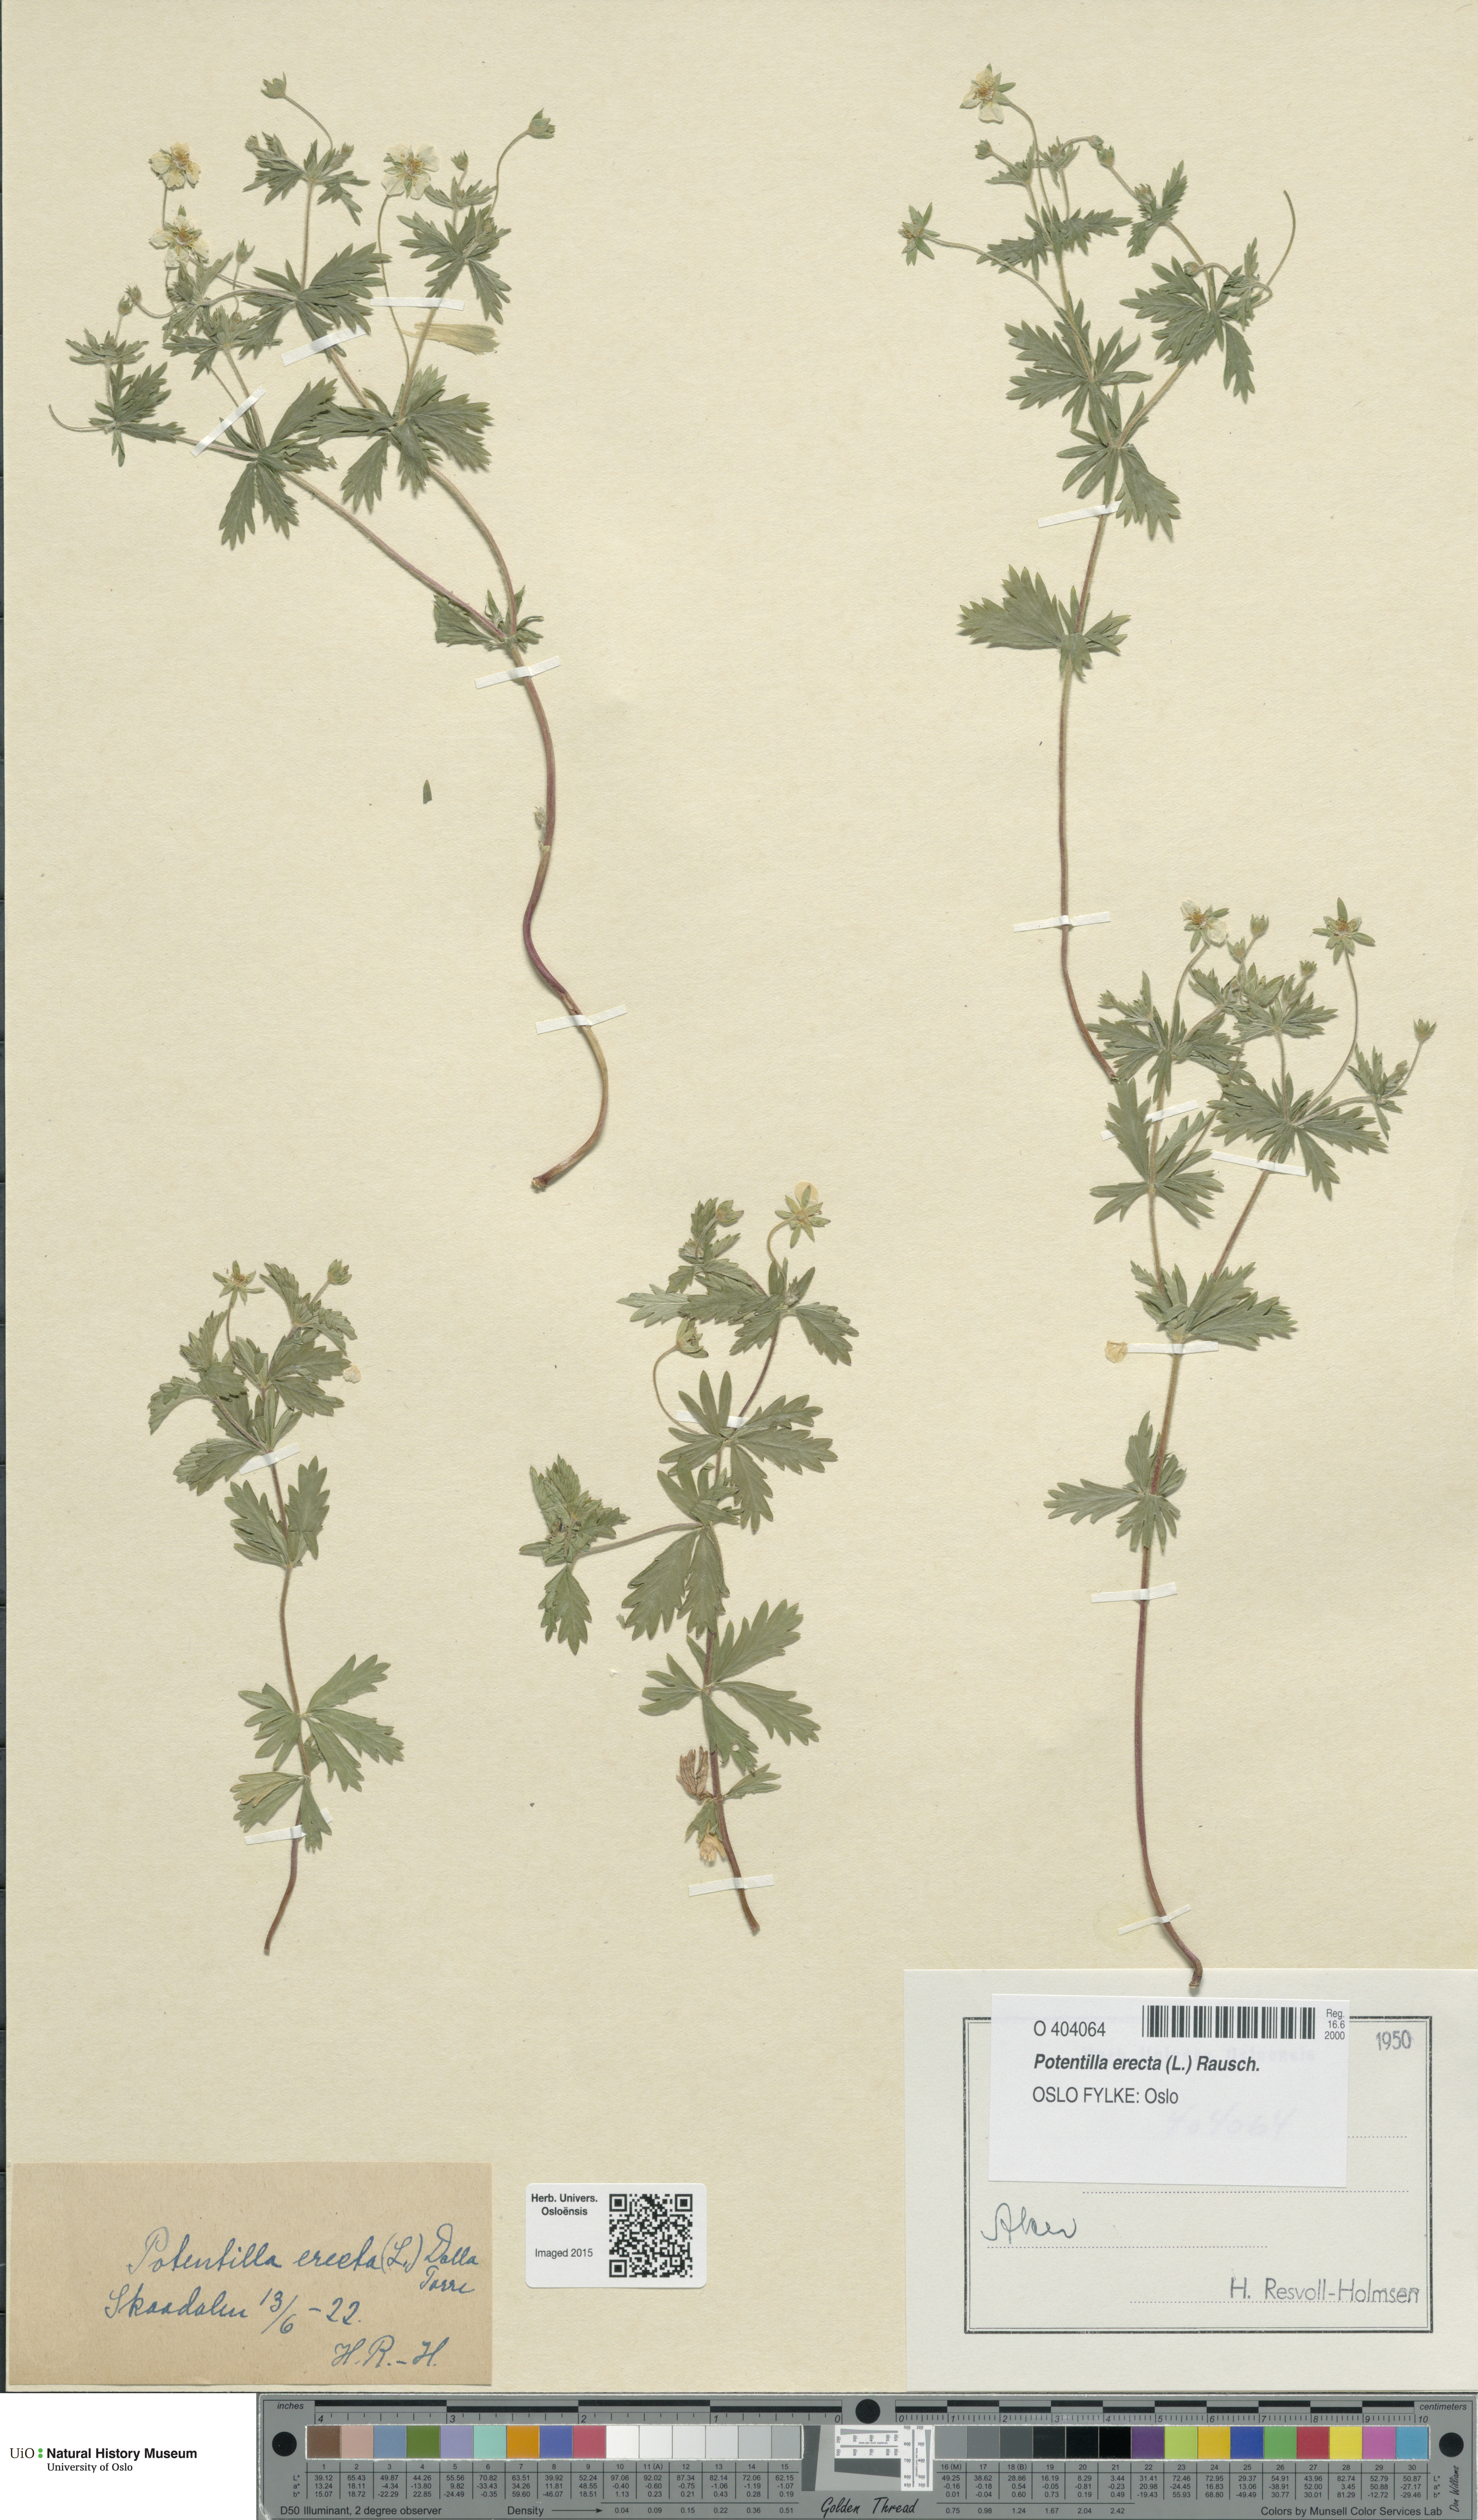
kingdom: Plantae
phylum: Tracheophyta
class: Magnoliopsida
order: Rosales
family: Rosaceae
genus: Potentilla
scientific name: Potentilla erecta
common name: Tormentil
